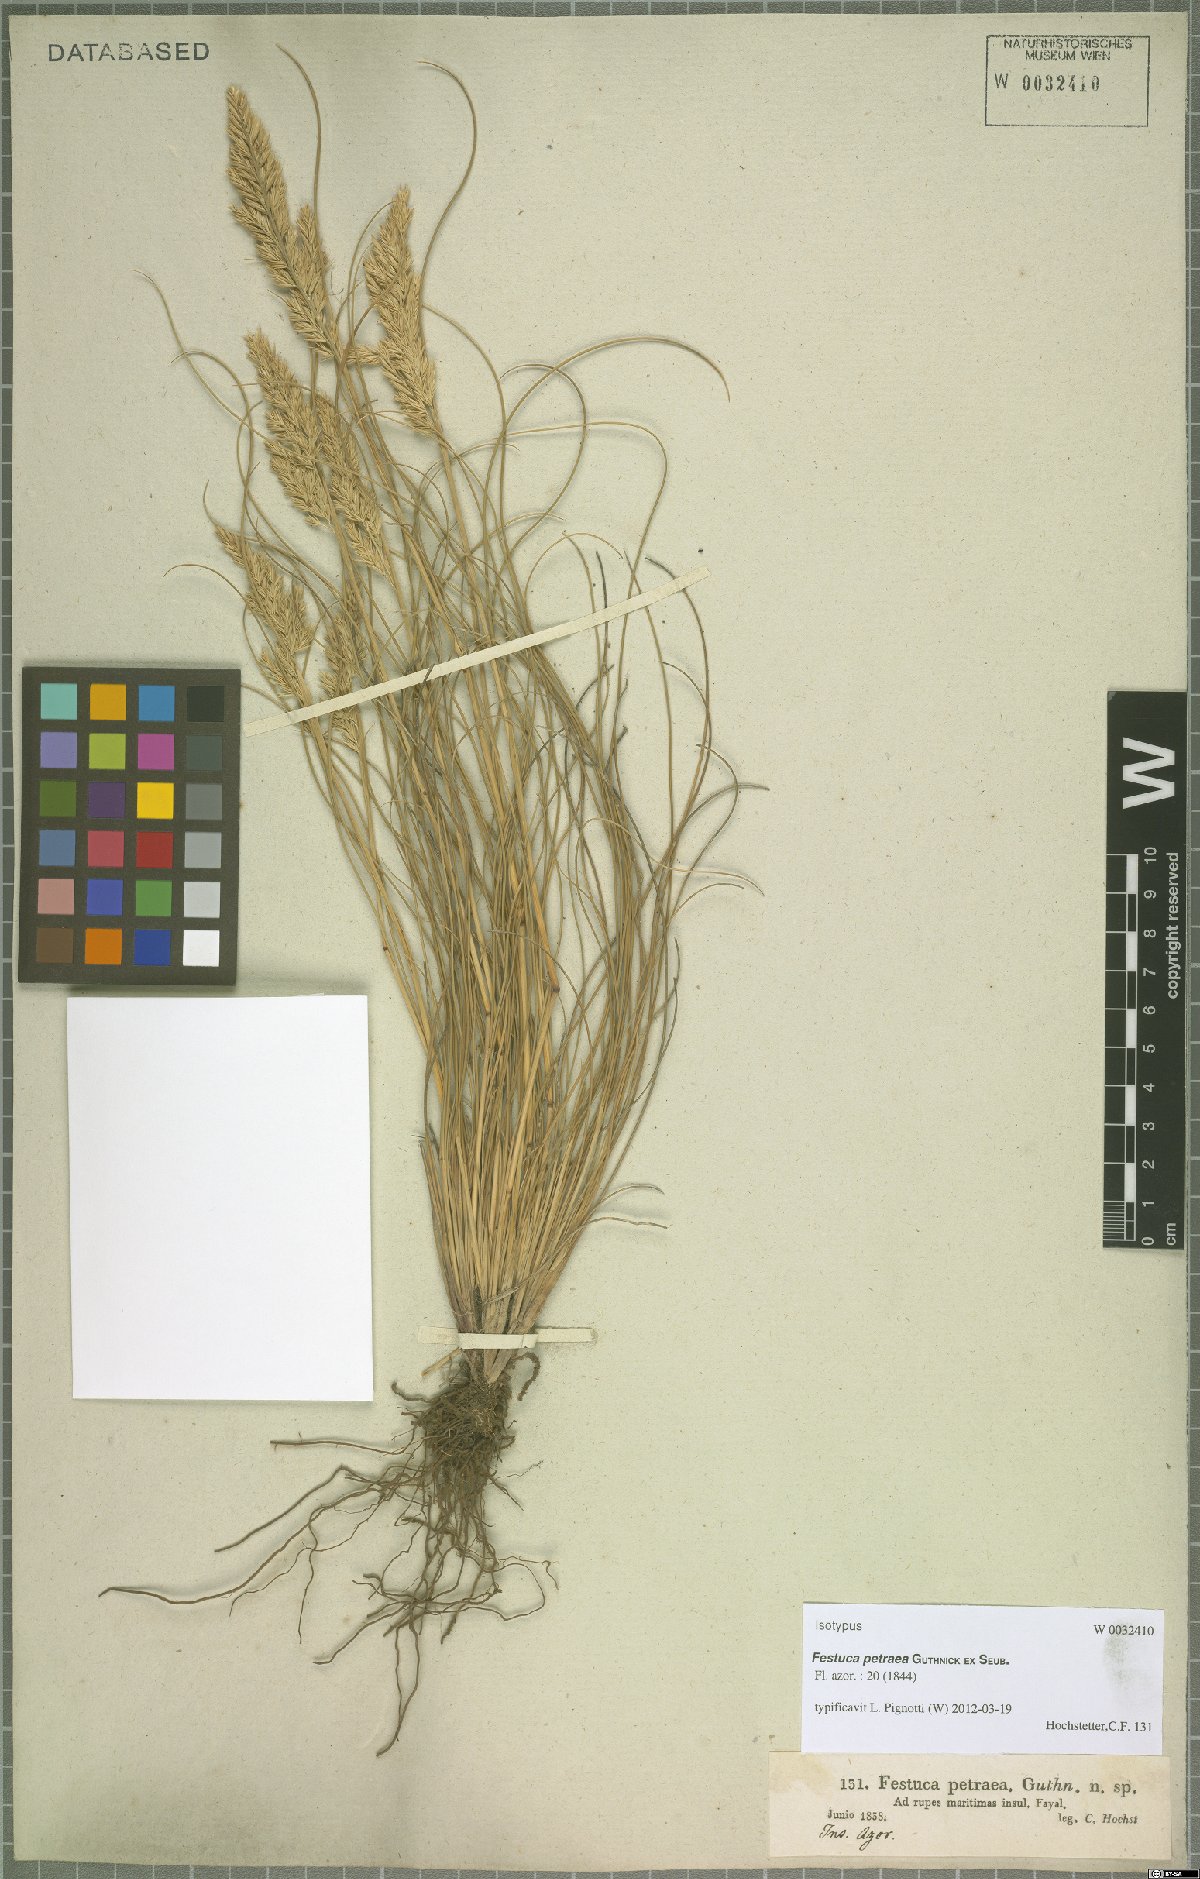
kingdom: Plantae
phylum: Tracheophyta
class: Liliopsida
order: Poales
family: Poaceae
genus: Festuca
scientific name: Festuca petraea
